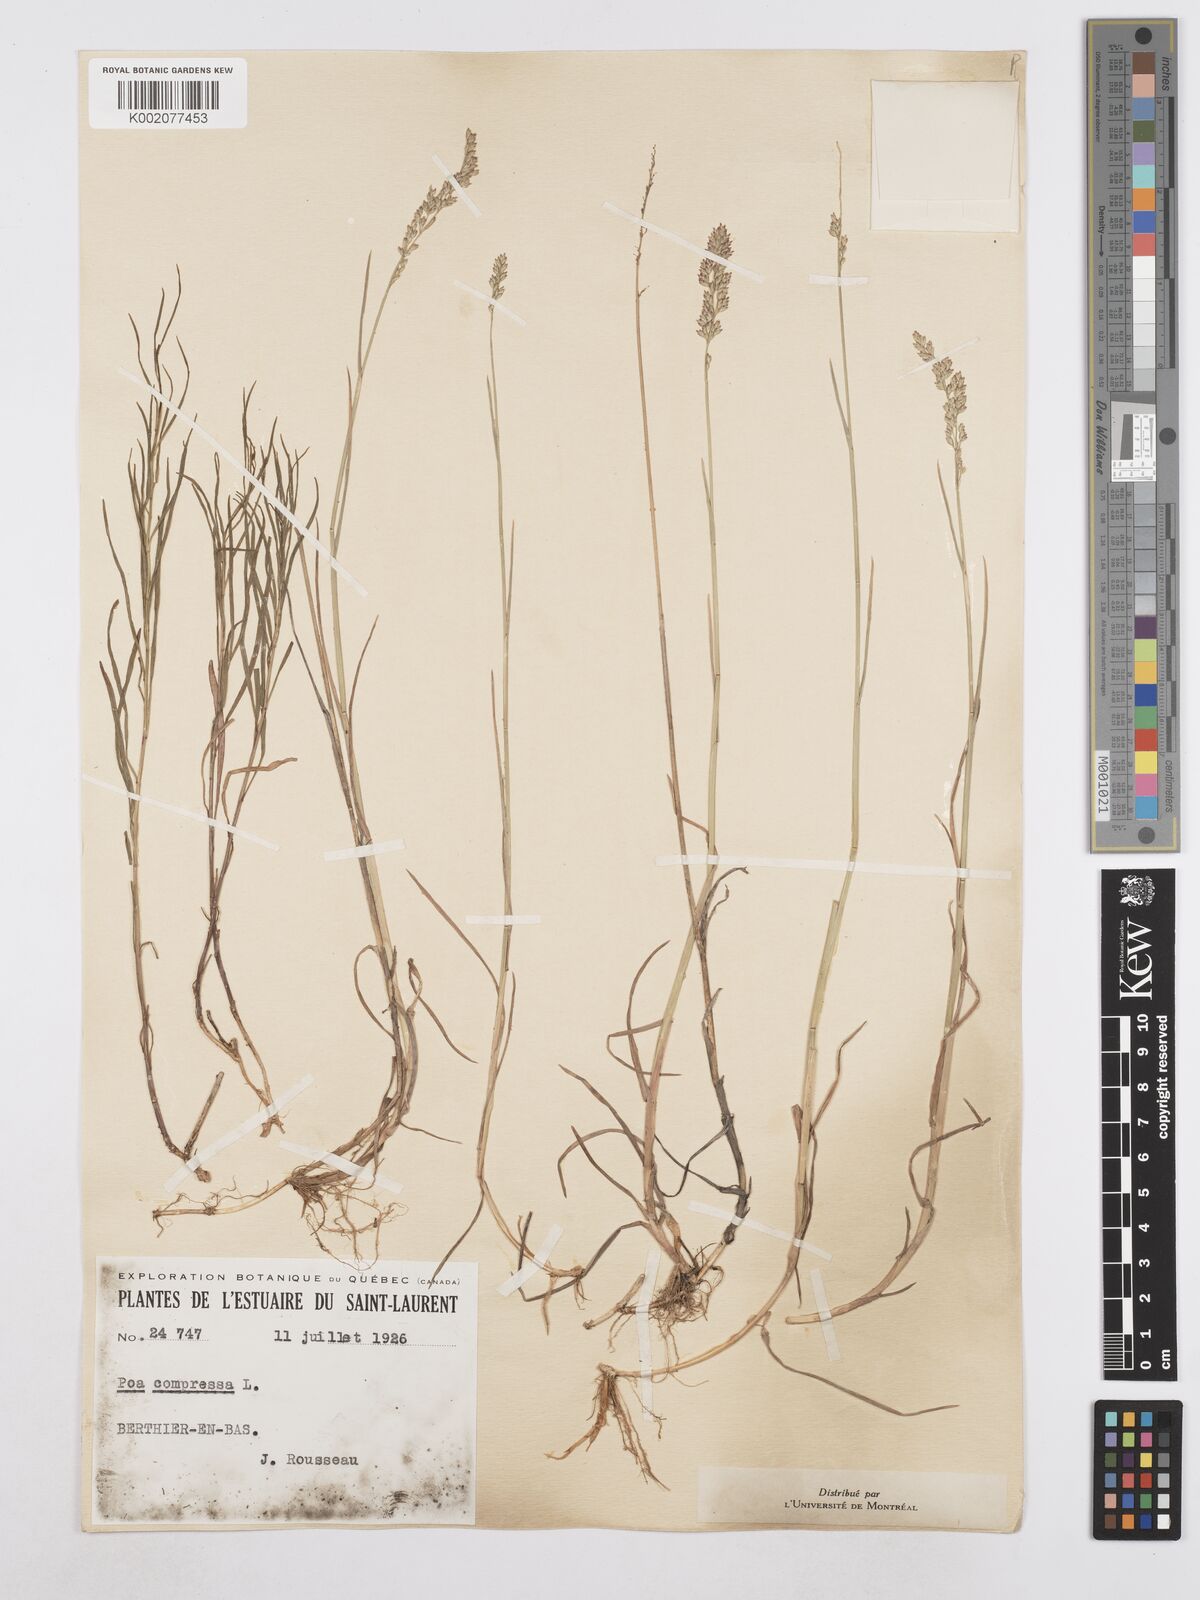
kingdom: Plantae
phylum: Tracheophyta
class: Liliopsida
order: Poales
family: Poaceae
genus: Poa
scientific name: Poa compressa
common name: Canada bluegrass
